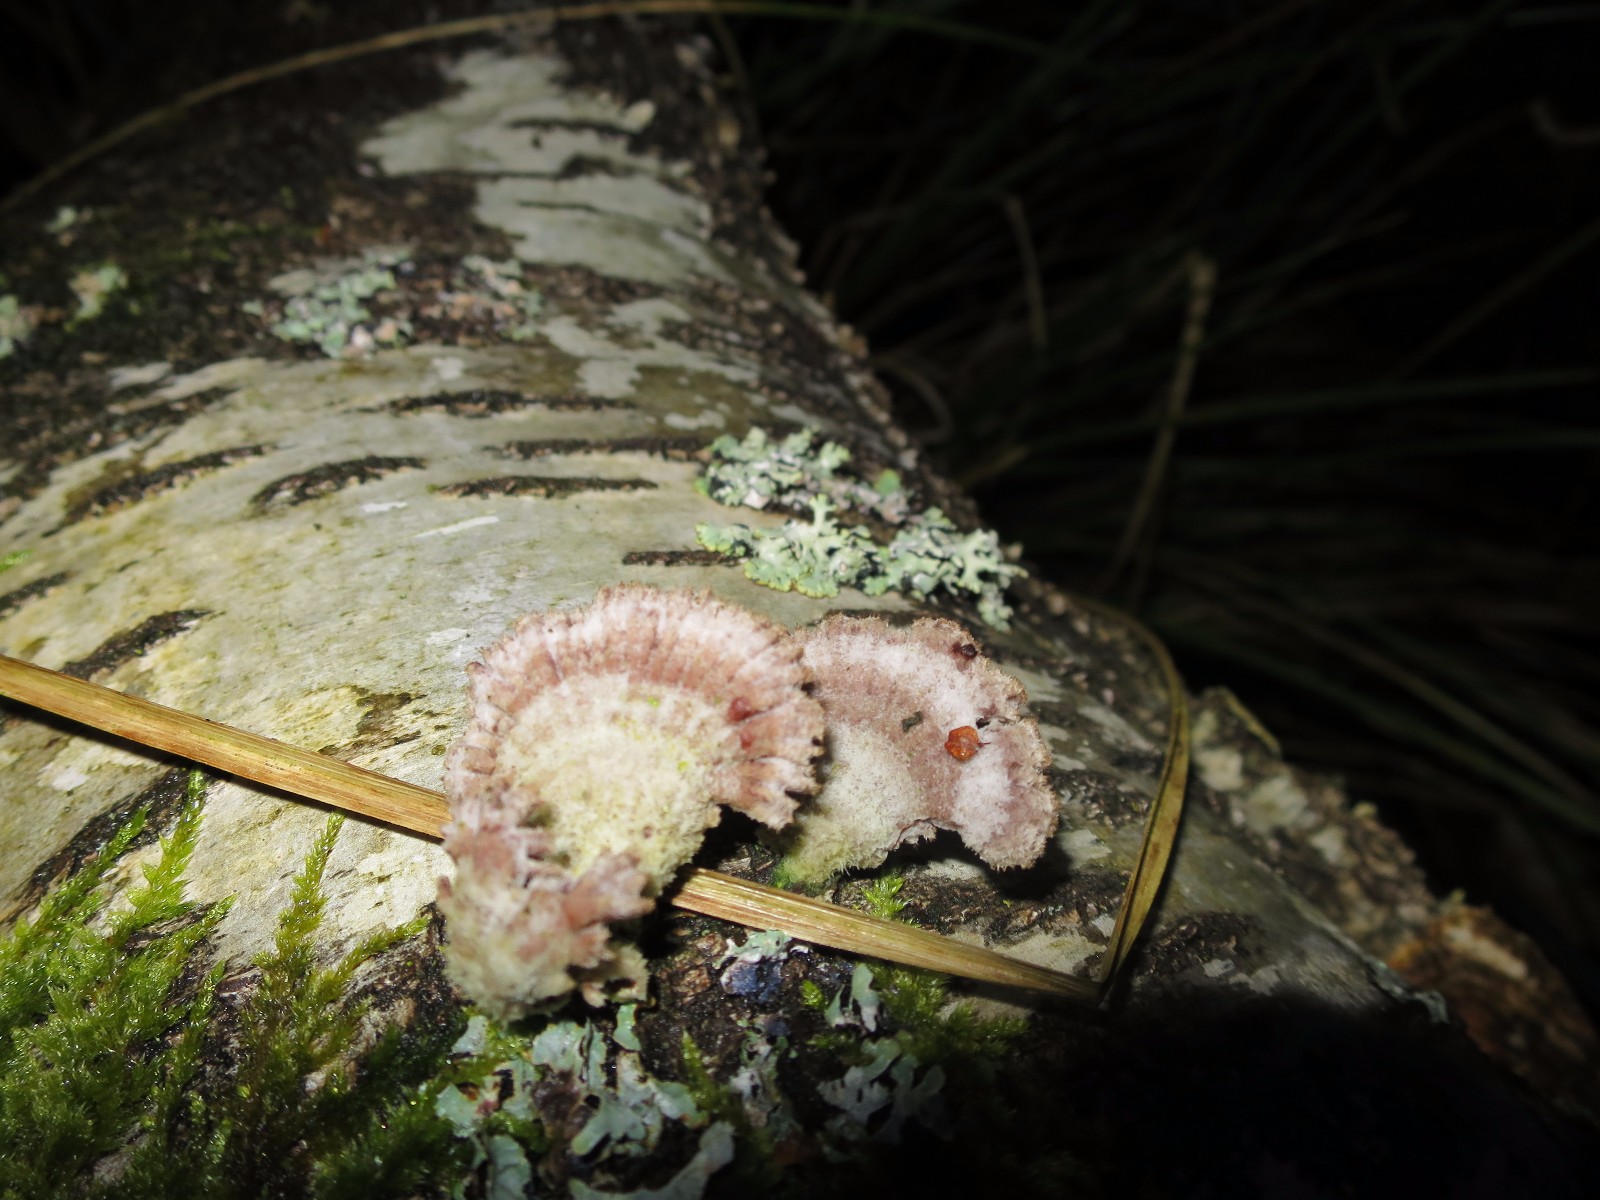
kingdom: Fungi
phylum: Basidiomycota
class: Agaricomycetes
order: Agaricales
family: Schizophyllaceae
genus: Schizophyllum
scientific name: Schizophyllum commune
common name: kløvblad
